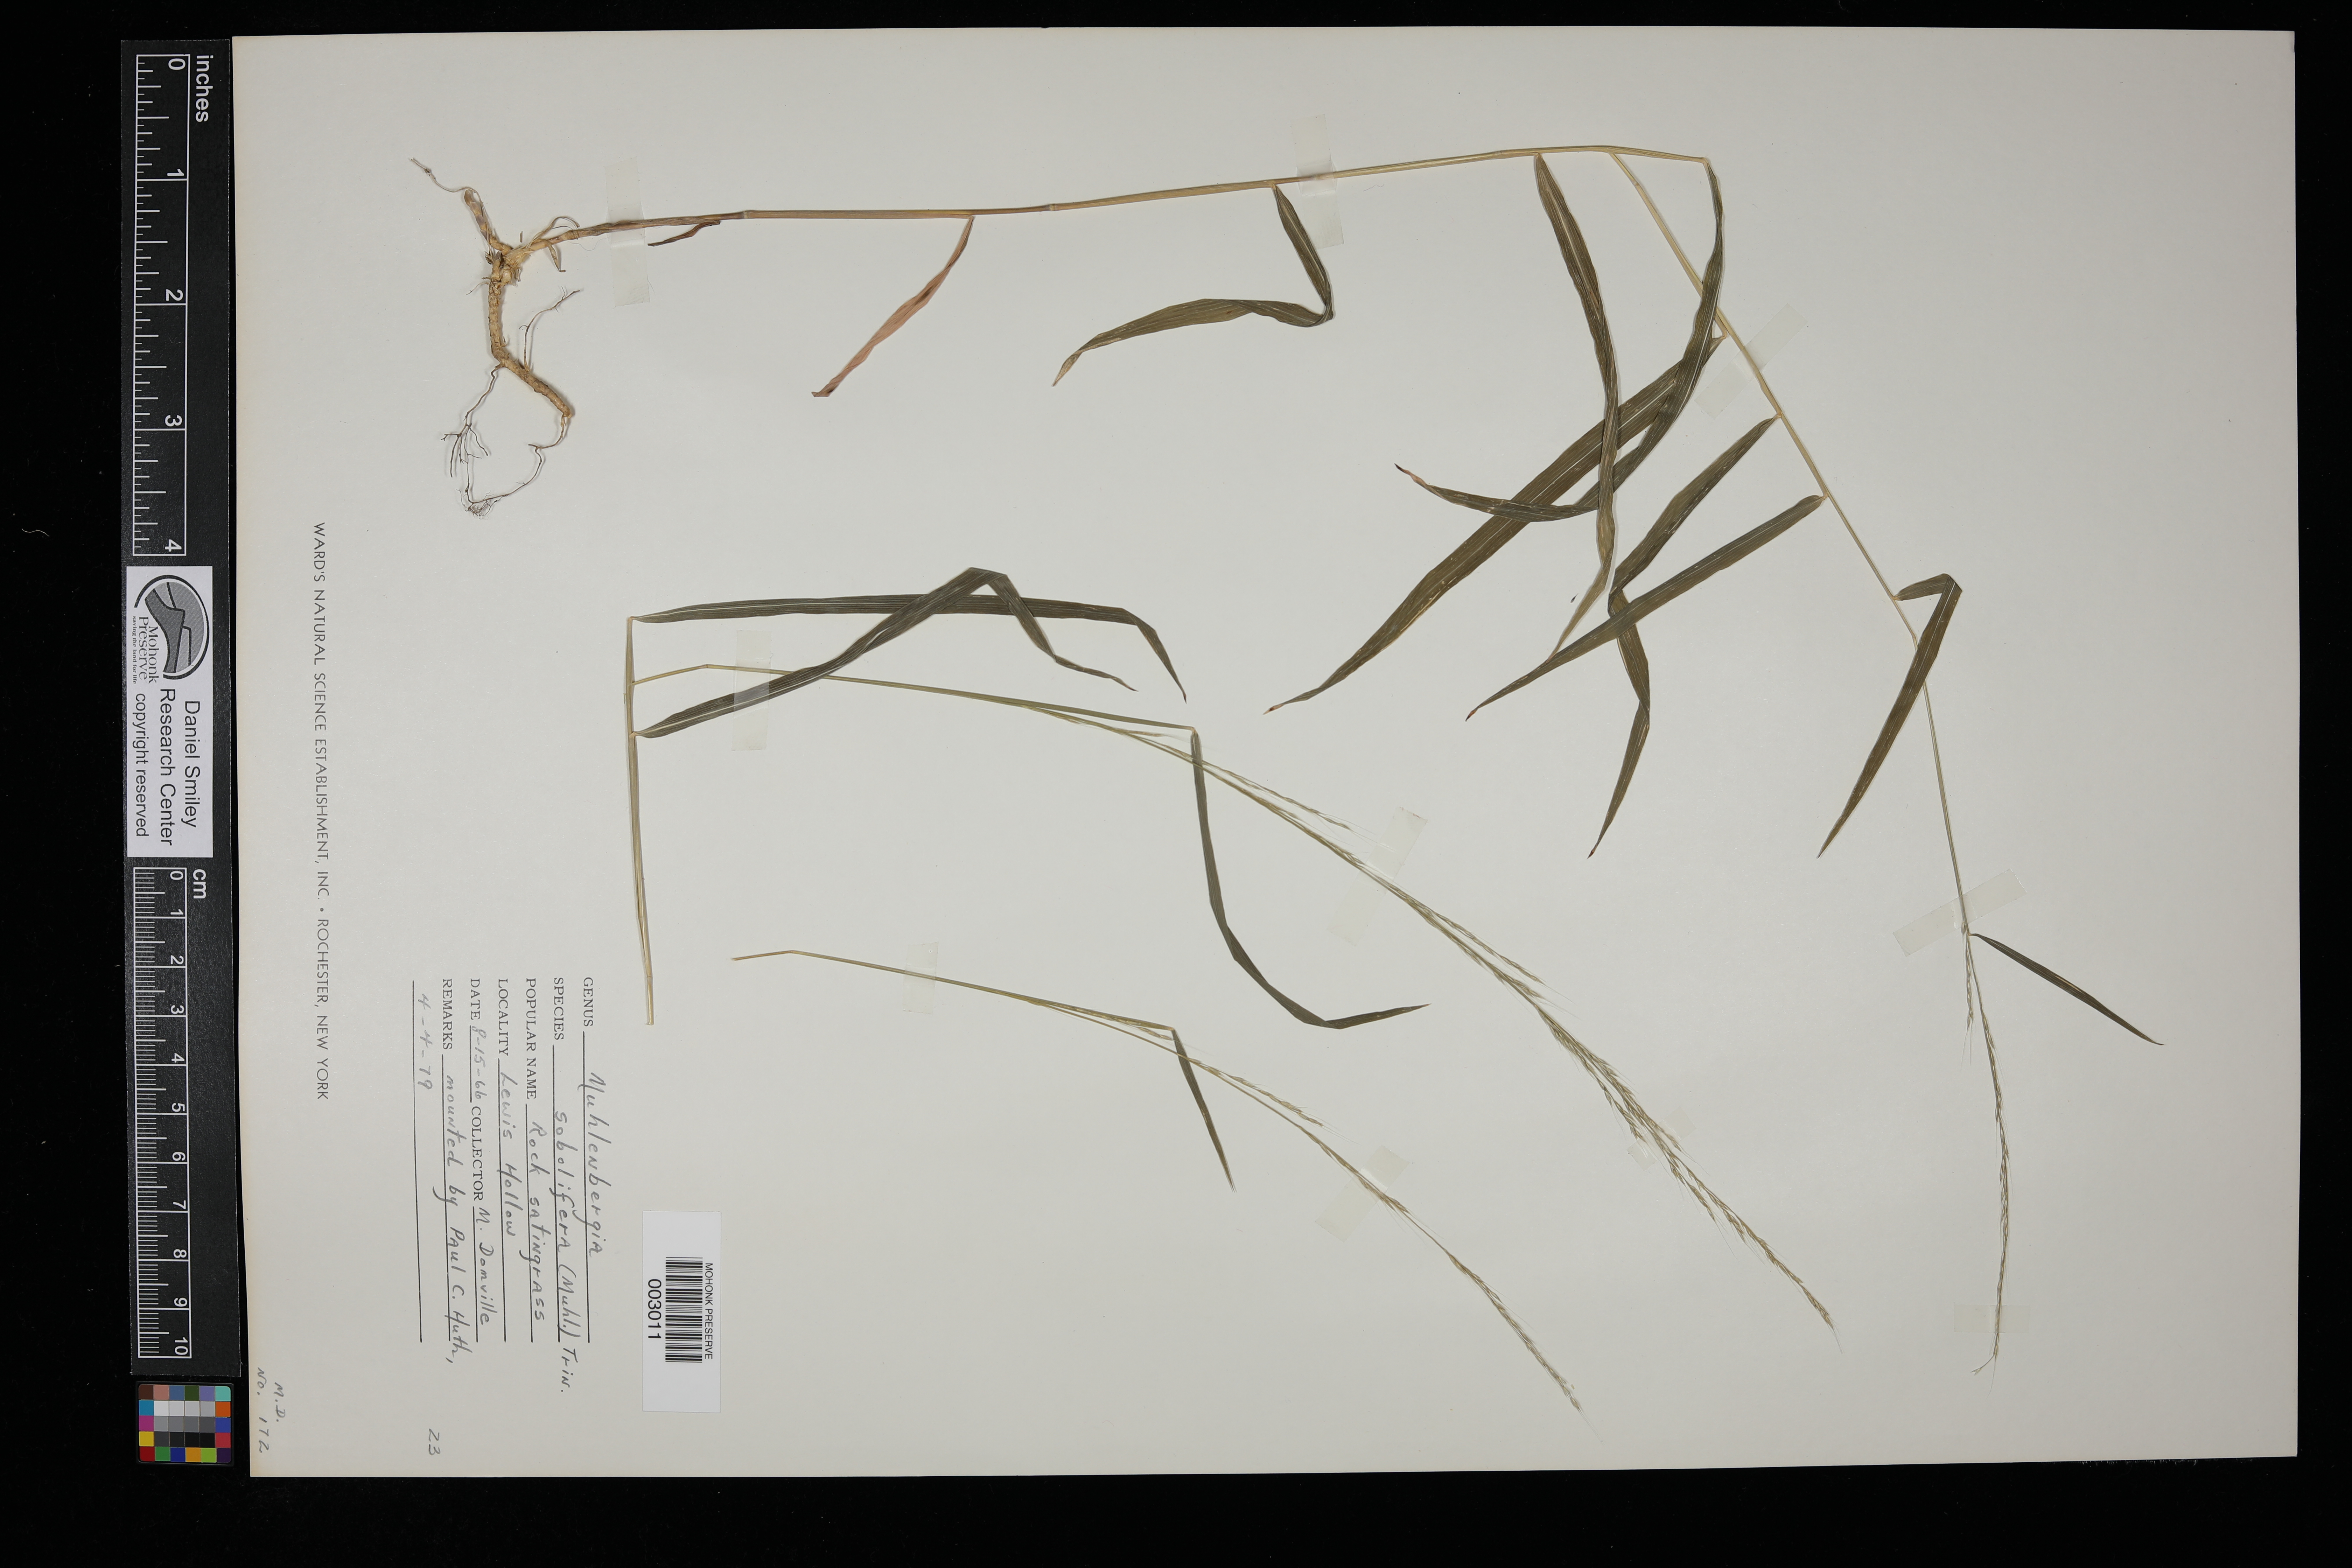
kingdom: Plantae
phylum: Tracheophyta
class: Liliopsida
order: Poales
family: Poaceae
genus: Muhlenbergia
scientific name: Muhlenbergia sobolifera
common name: Creeping muhly
